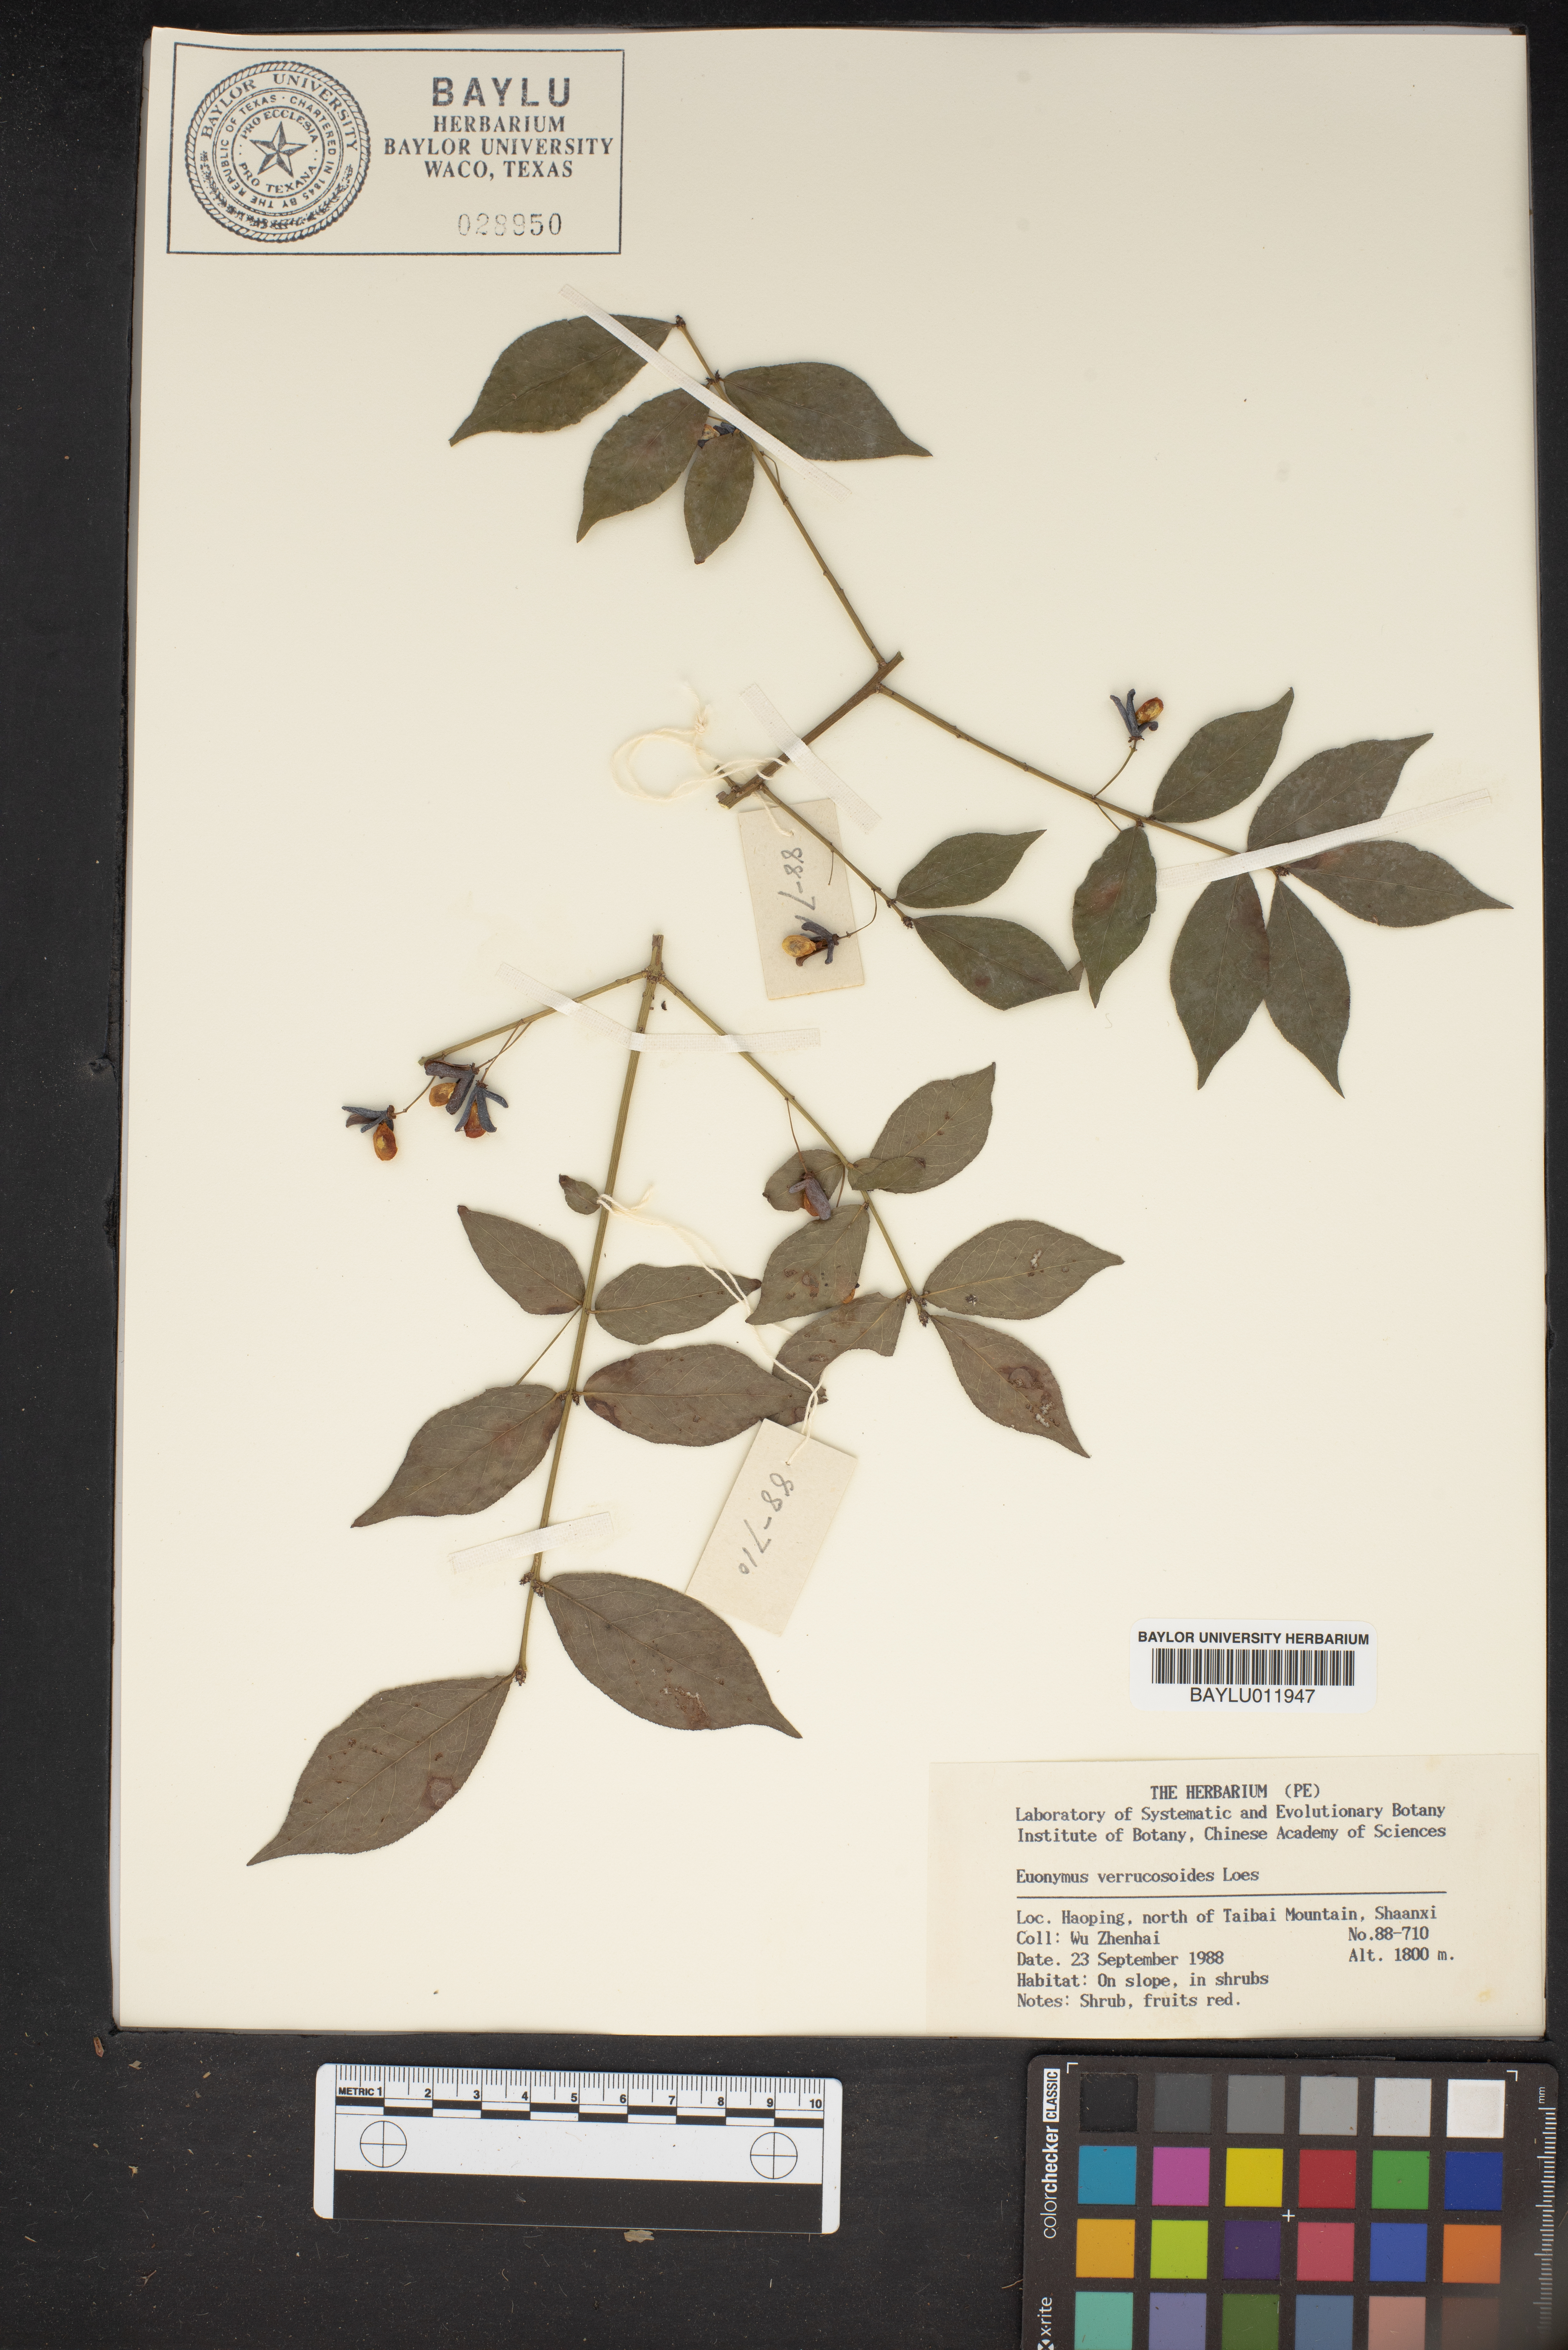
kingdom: Plantae
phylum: Tracheophyta
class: Magnoliopsida
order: Celastrales
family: Celastraceae
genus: Euonymus
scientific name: Euonymus verrucosoides
